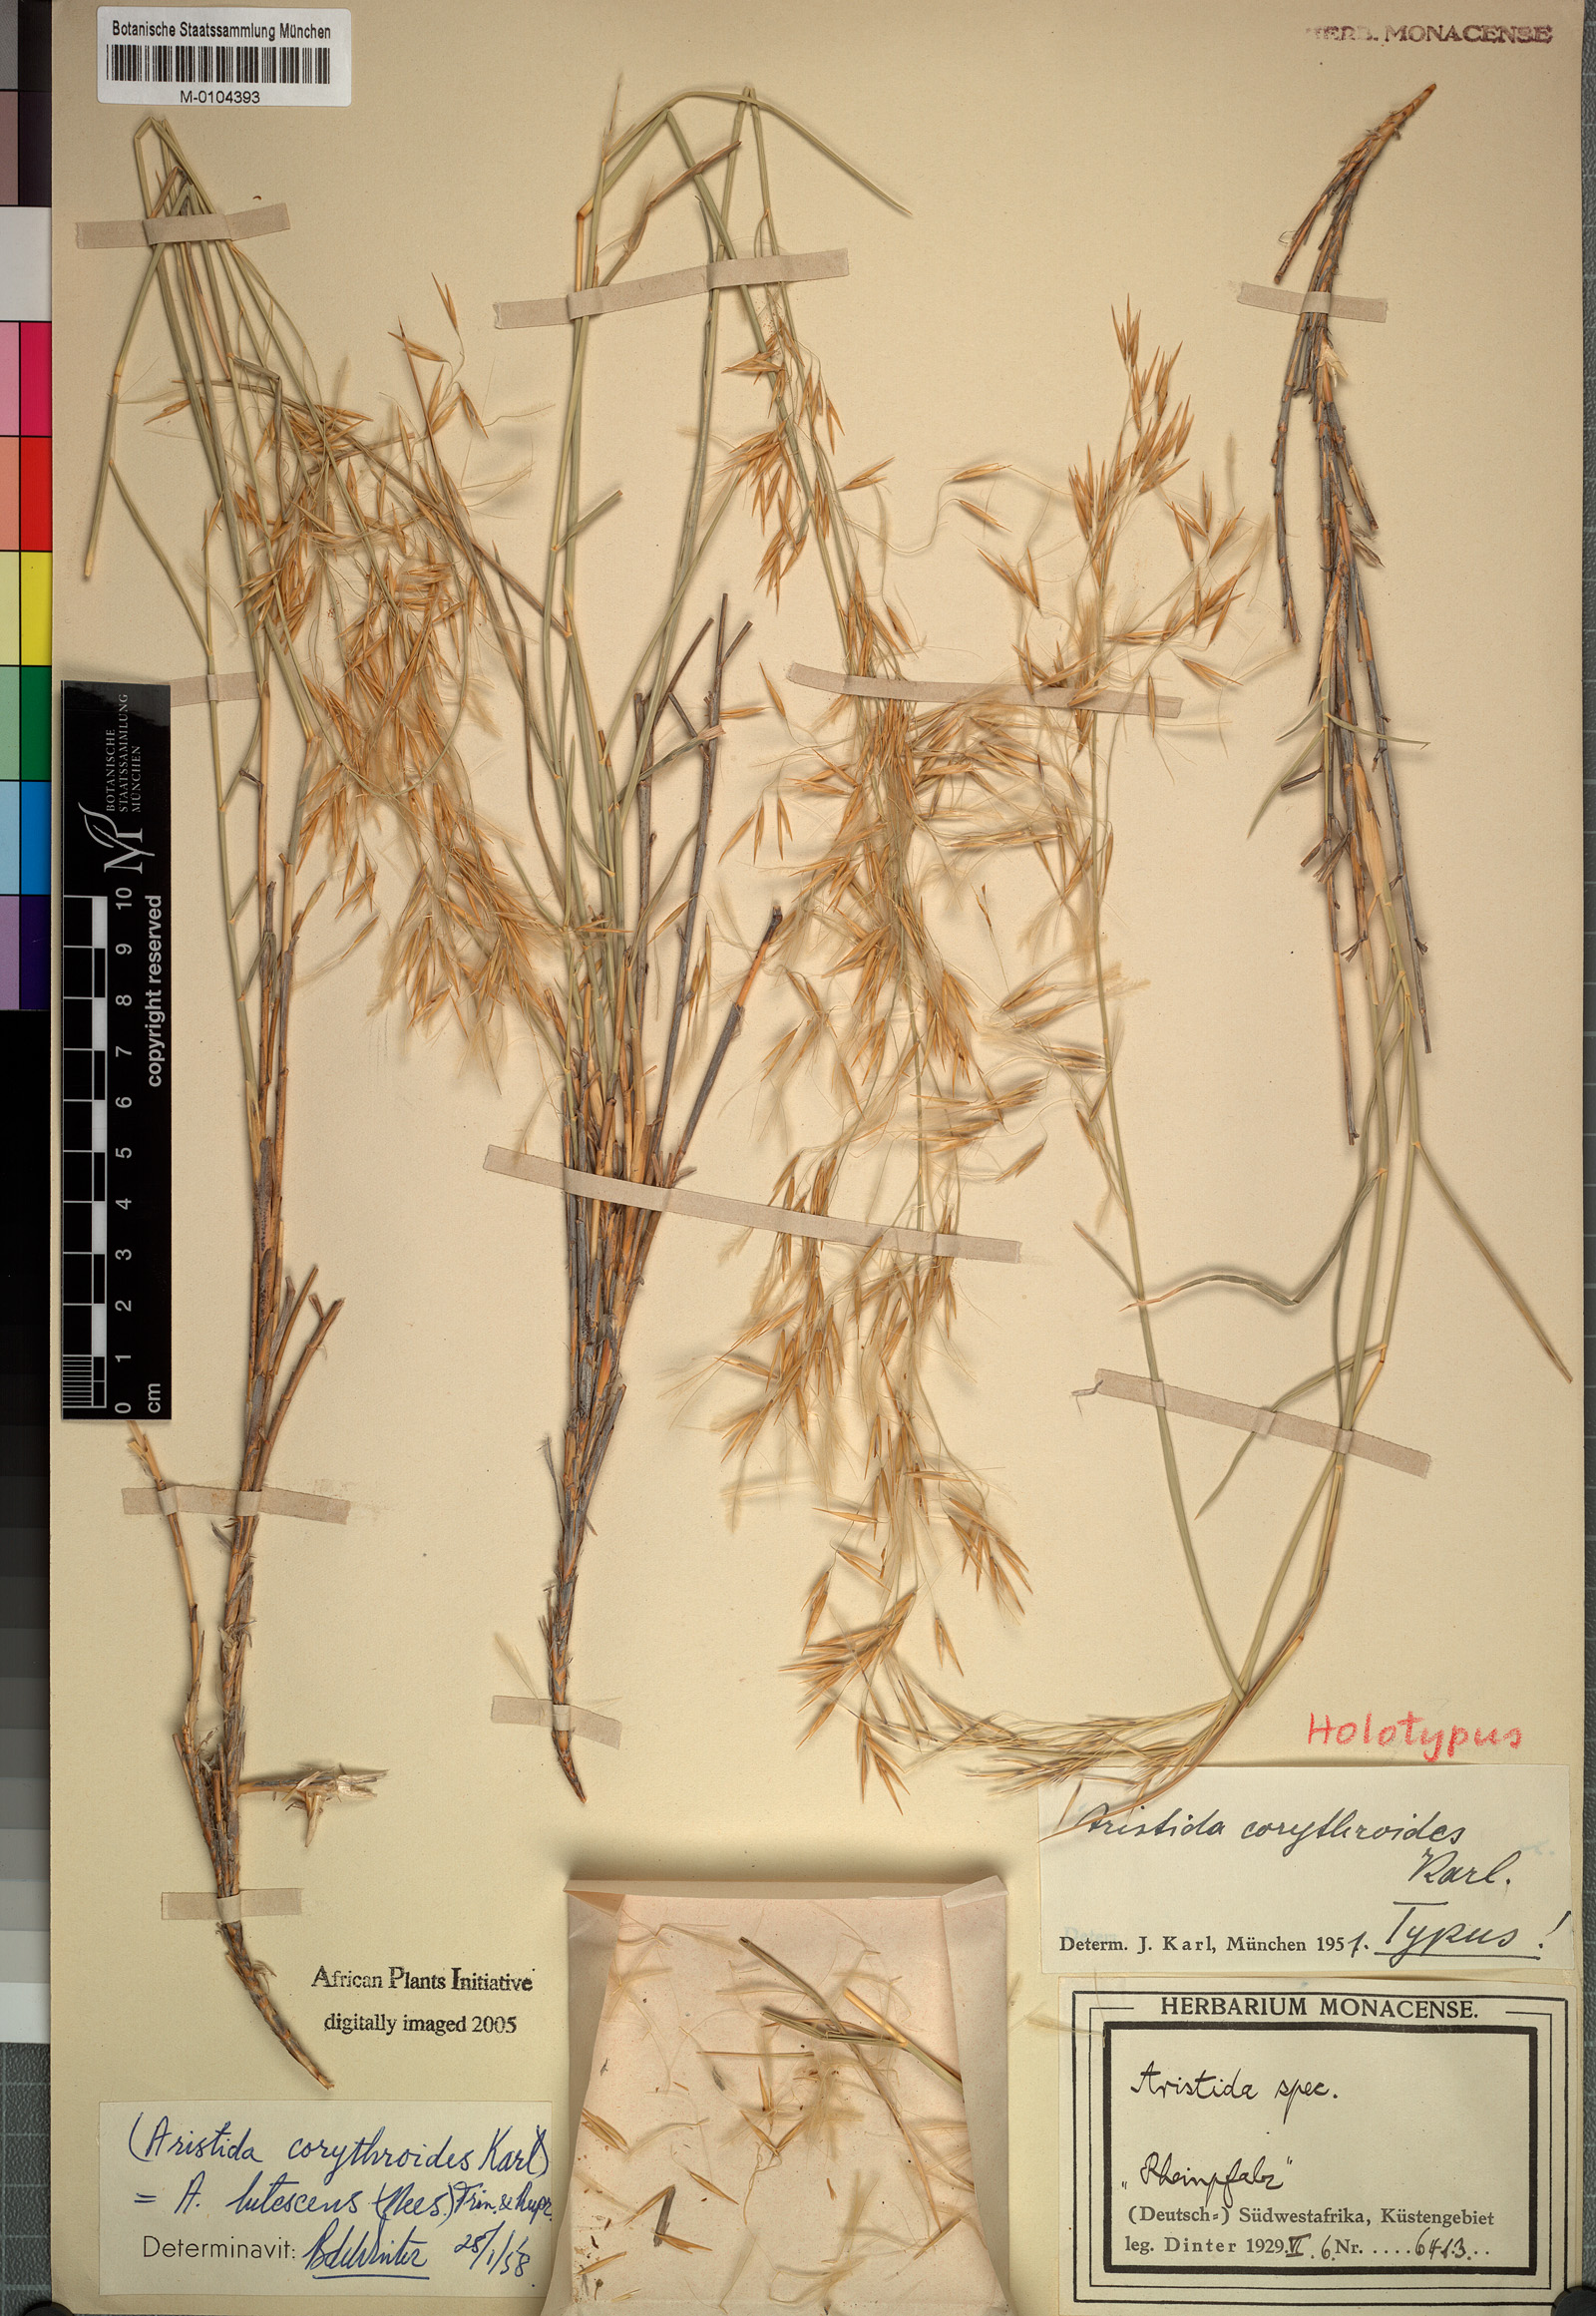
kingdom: Plantae
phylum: Tracheophyta
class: Liliopsida
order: Poales
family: Poaceae
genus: Stipagrostis
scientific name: Stipagrostis lutescens
